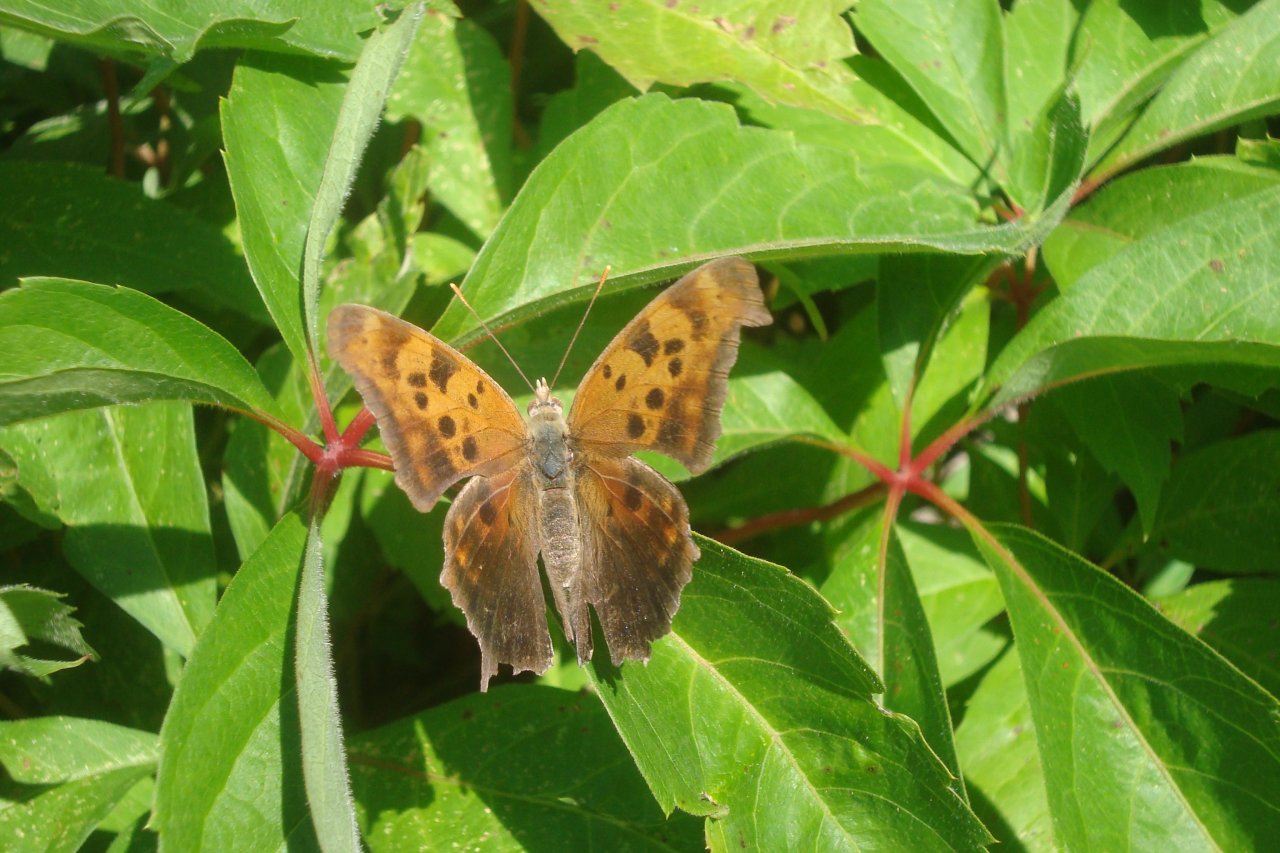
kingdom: Animalia
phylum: Arthropoda
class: Insecta
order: Lepidoptera
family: Nymphalidae
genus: Polygonia
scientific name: Polygonia interrogationis
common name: Question Mark
